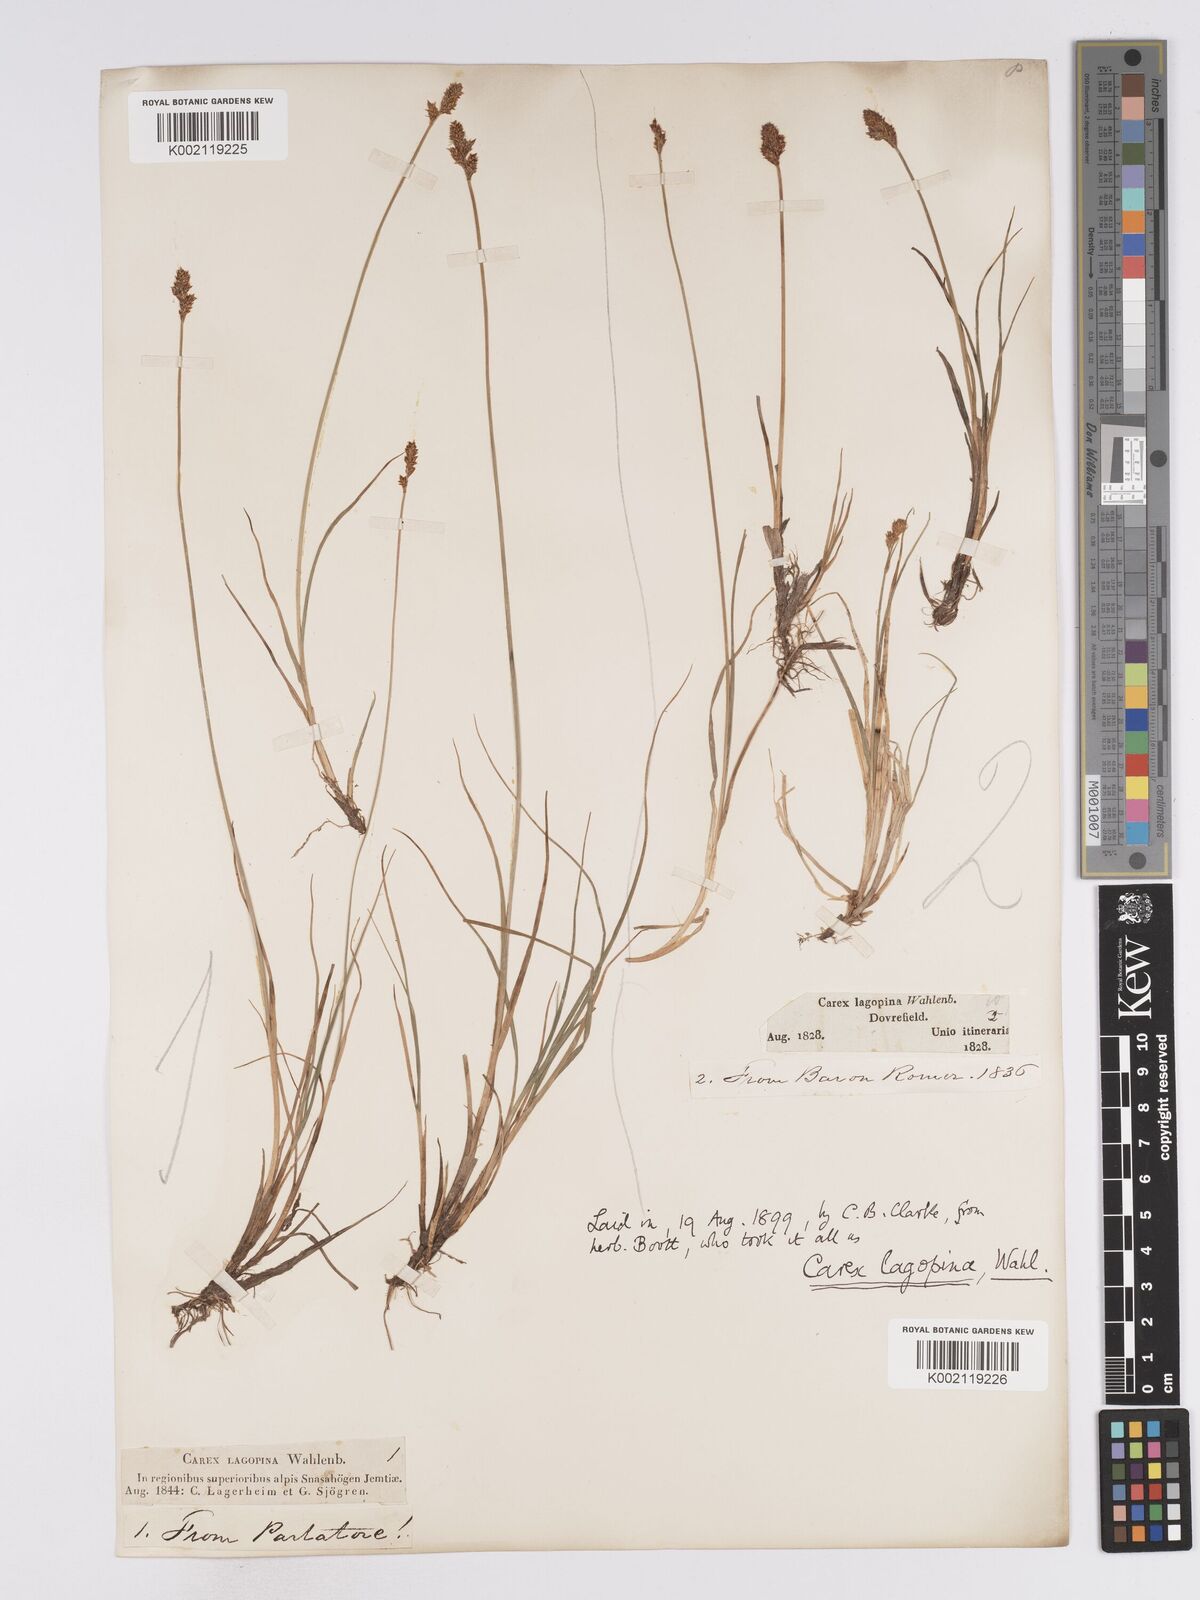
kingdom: Plantae
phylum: Tracheophyta
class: Liliopsida
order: Poales
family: Cyperaceae
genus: Carex
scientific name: Carex lachenalii
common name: Hare's-foot sedge
